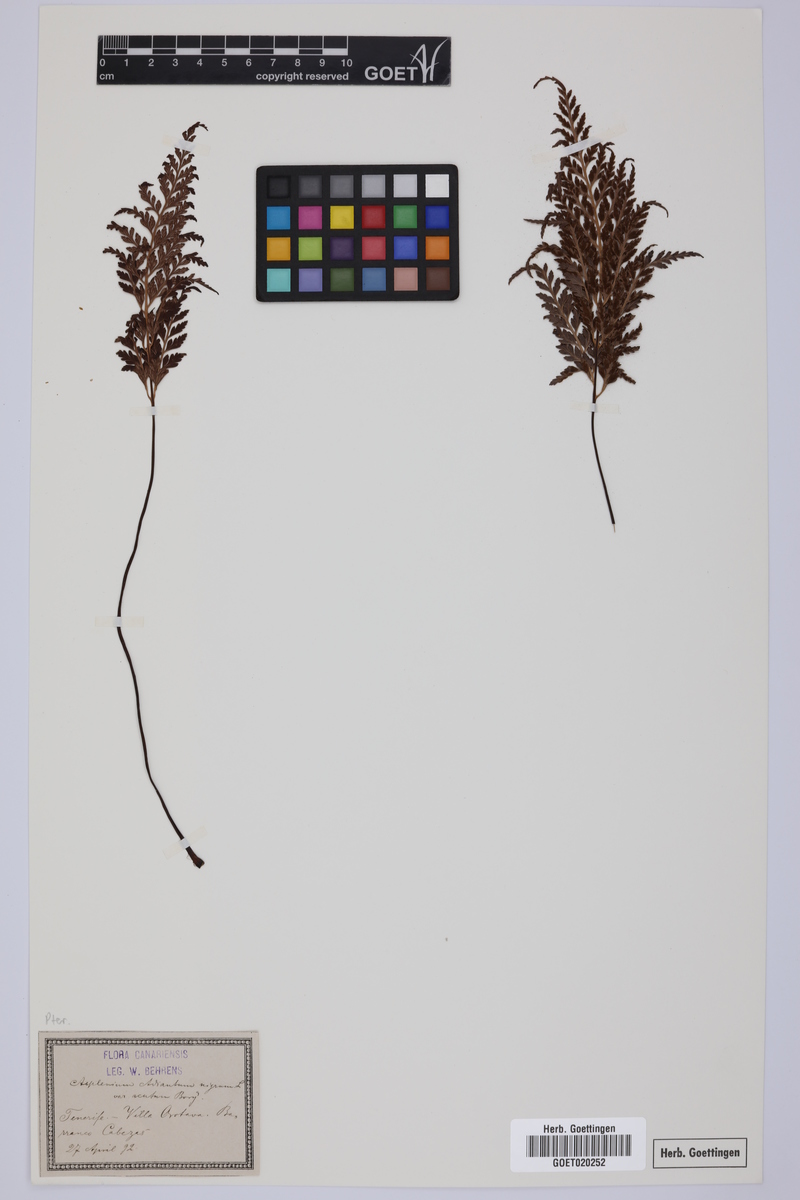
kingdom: Plantae
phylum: Tracheophyta
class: Polypodiopsida
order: Polypodiales
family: Aspleniaceae
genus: Asplenium
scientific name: Asplenium onopteris
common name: Irish spleenwort
